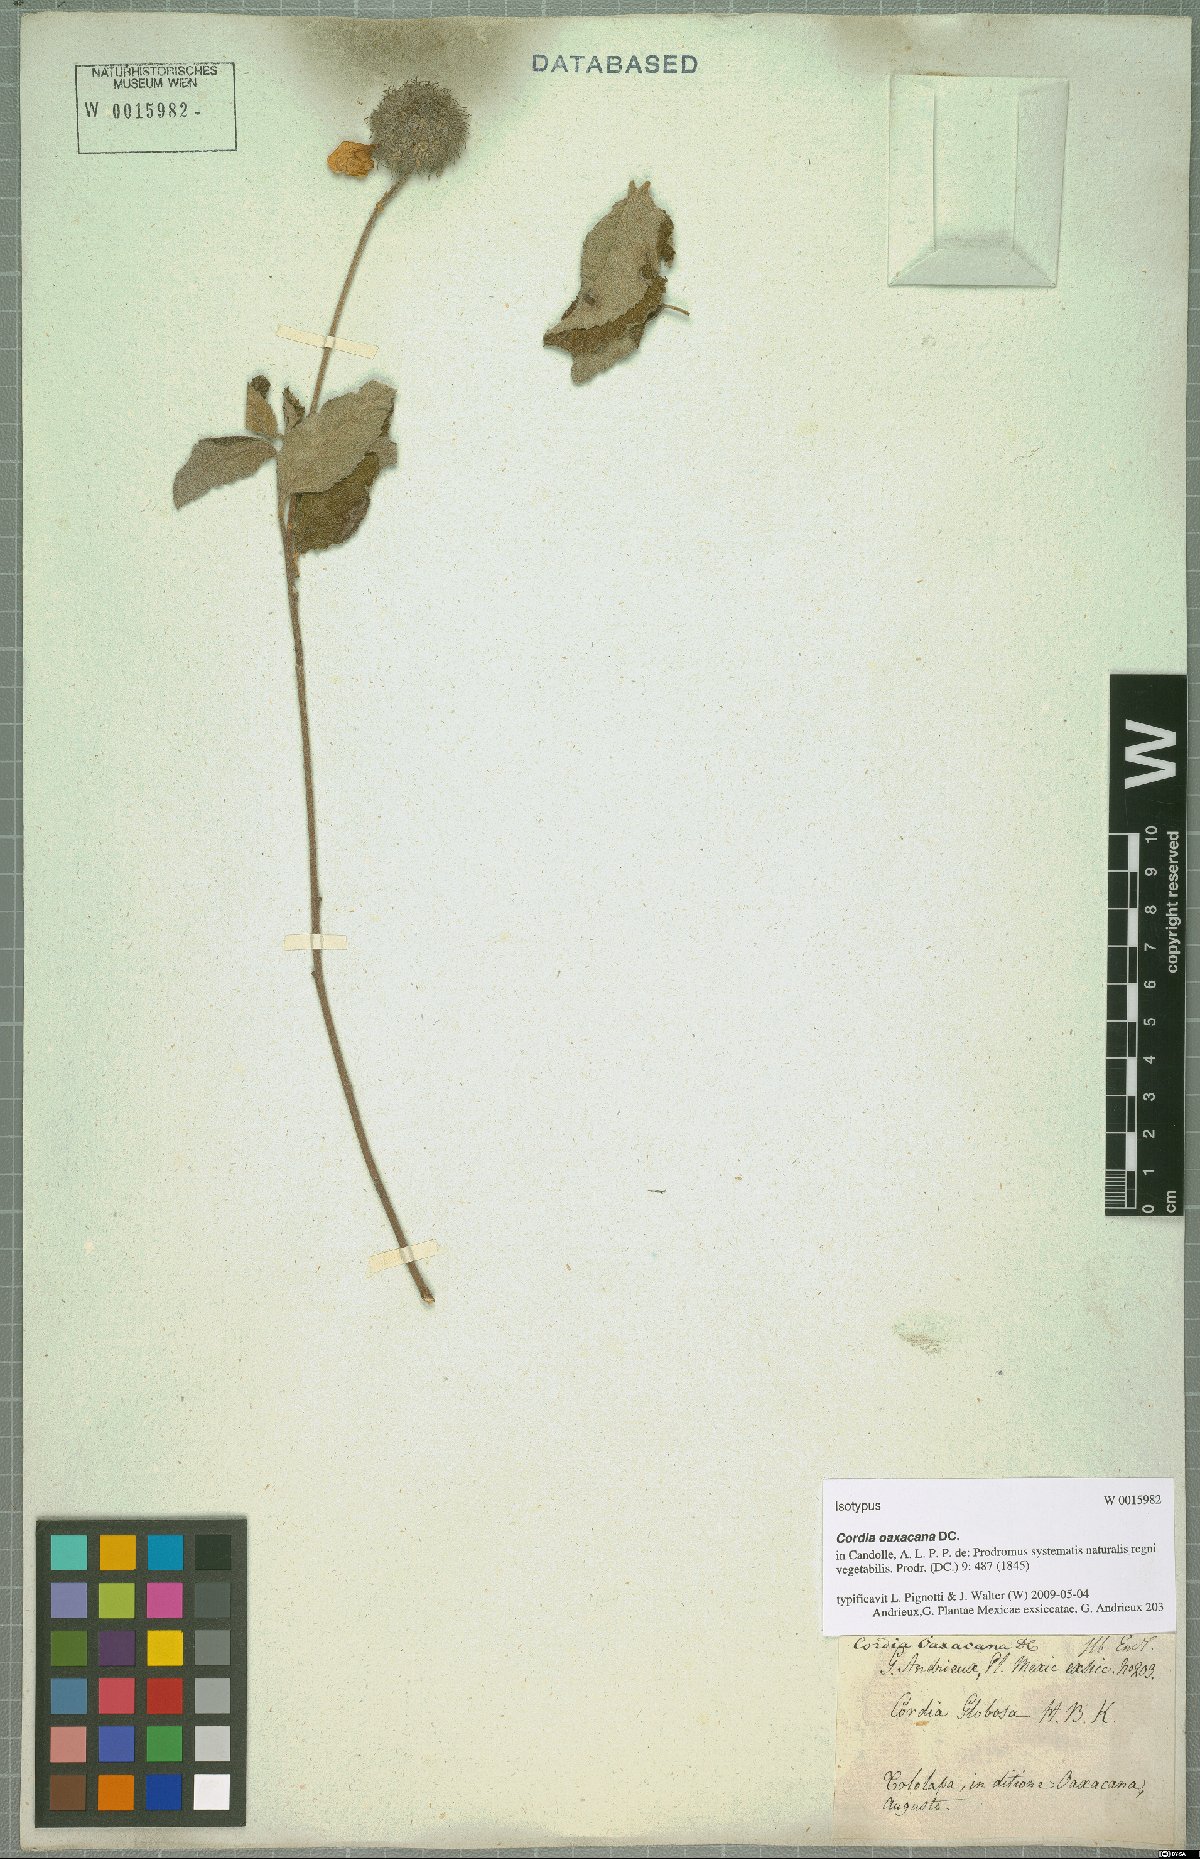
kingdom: Plantae
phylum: Tracheophyta
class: Magnoliopsida
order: Boraginales
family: Cordiaceae
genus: Varronia
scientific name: Varronia oaxacana
